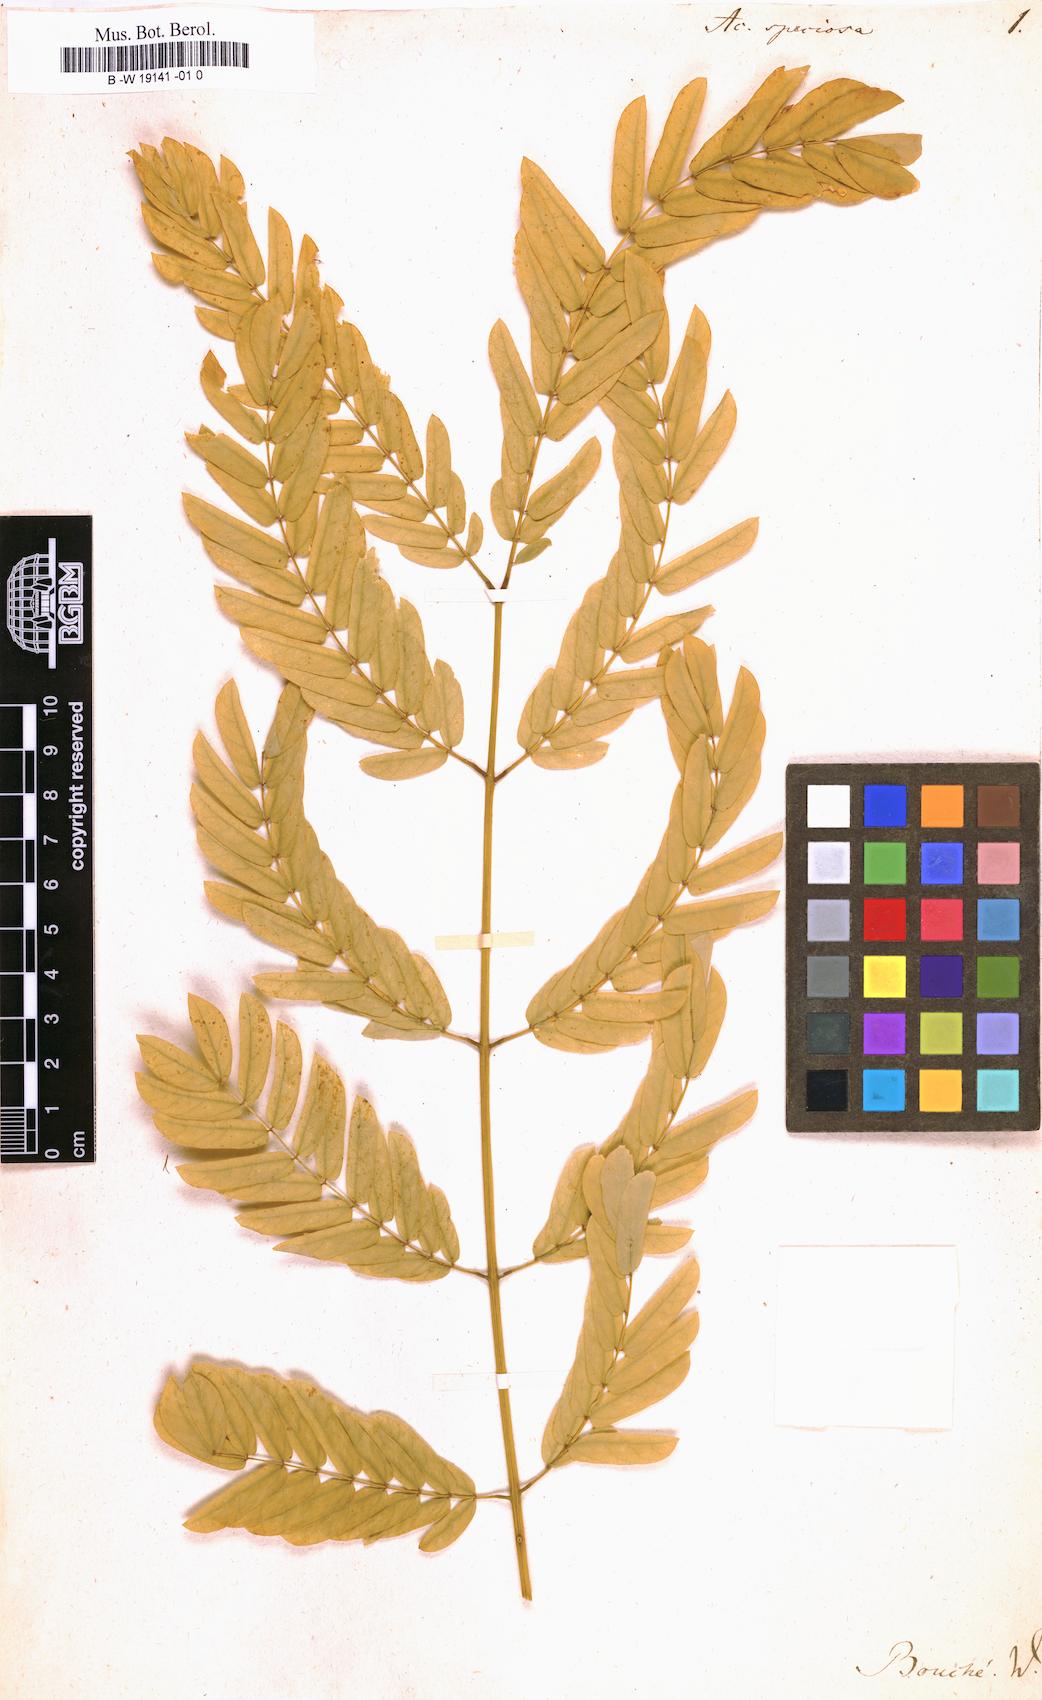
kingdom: Plantae
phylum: Tracheophyta
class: Magnoliopsida
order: Fabales
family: Fabaceae
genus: Albizia
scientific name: Albizia lebbeck
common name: Woman's tongue
